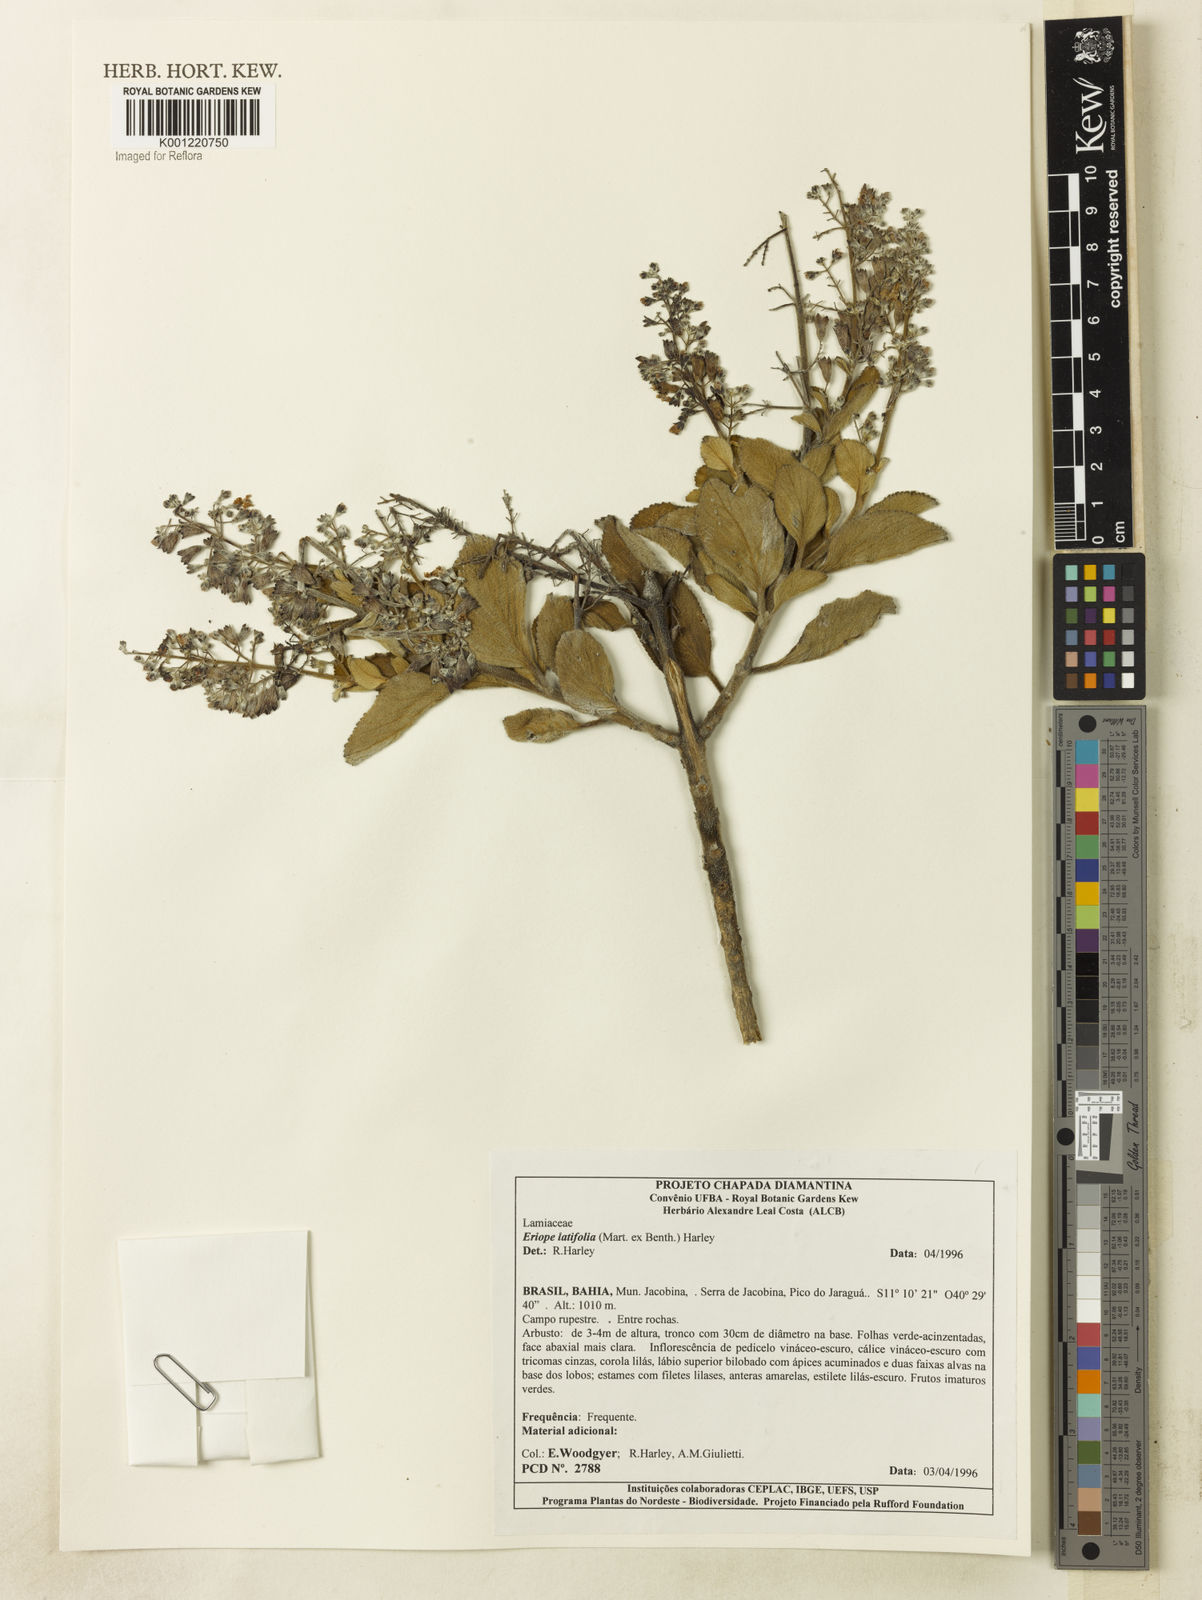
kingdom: Plantae
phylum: Tracheophyta
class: Magnoliopsida
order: Lamiales
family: Lamiaceae
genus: Eriope
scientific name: Eriope latifolia
